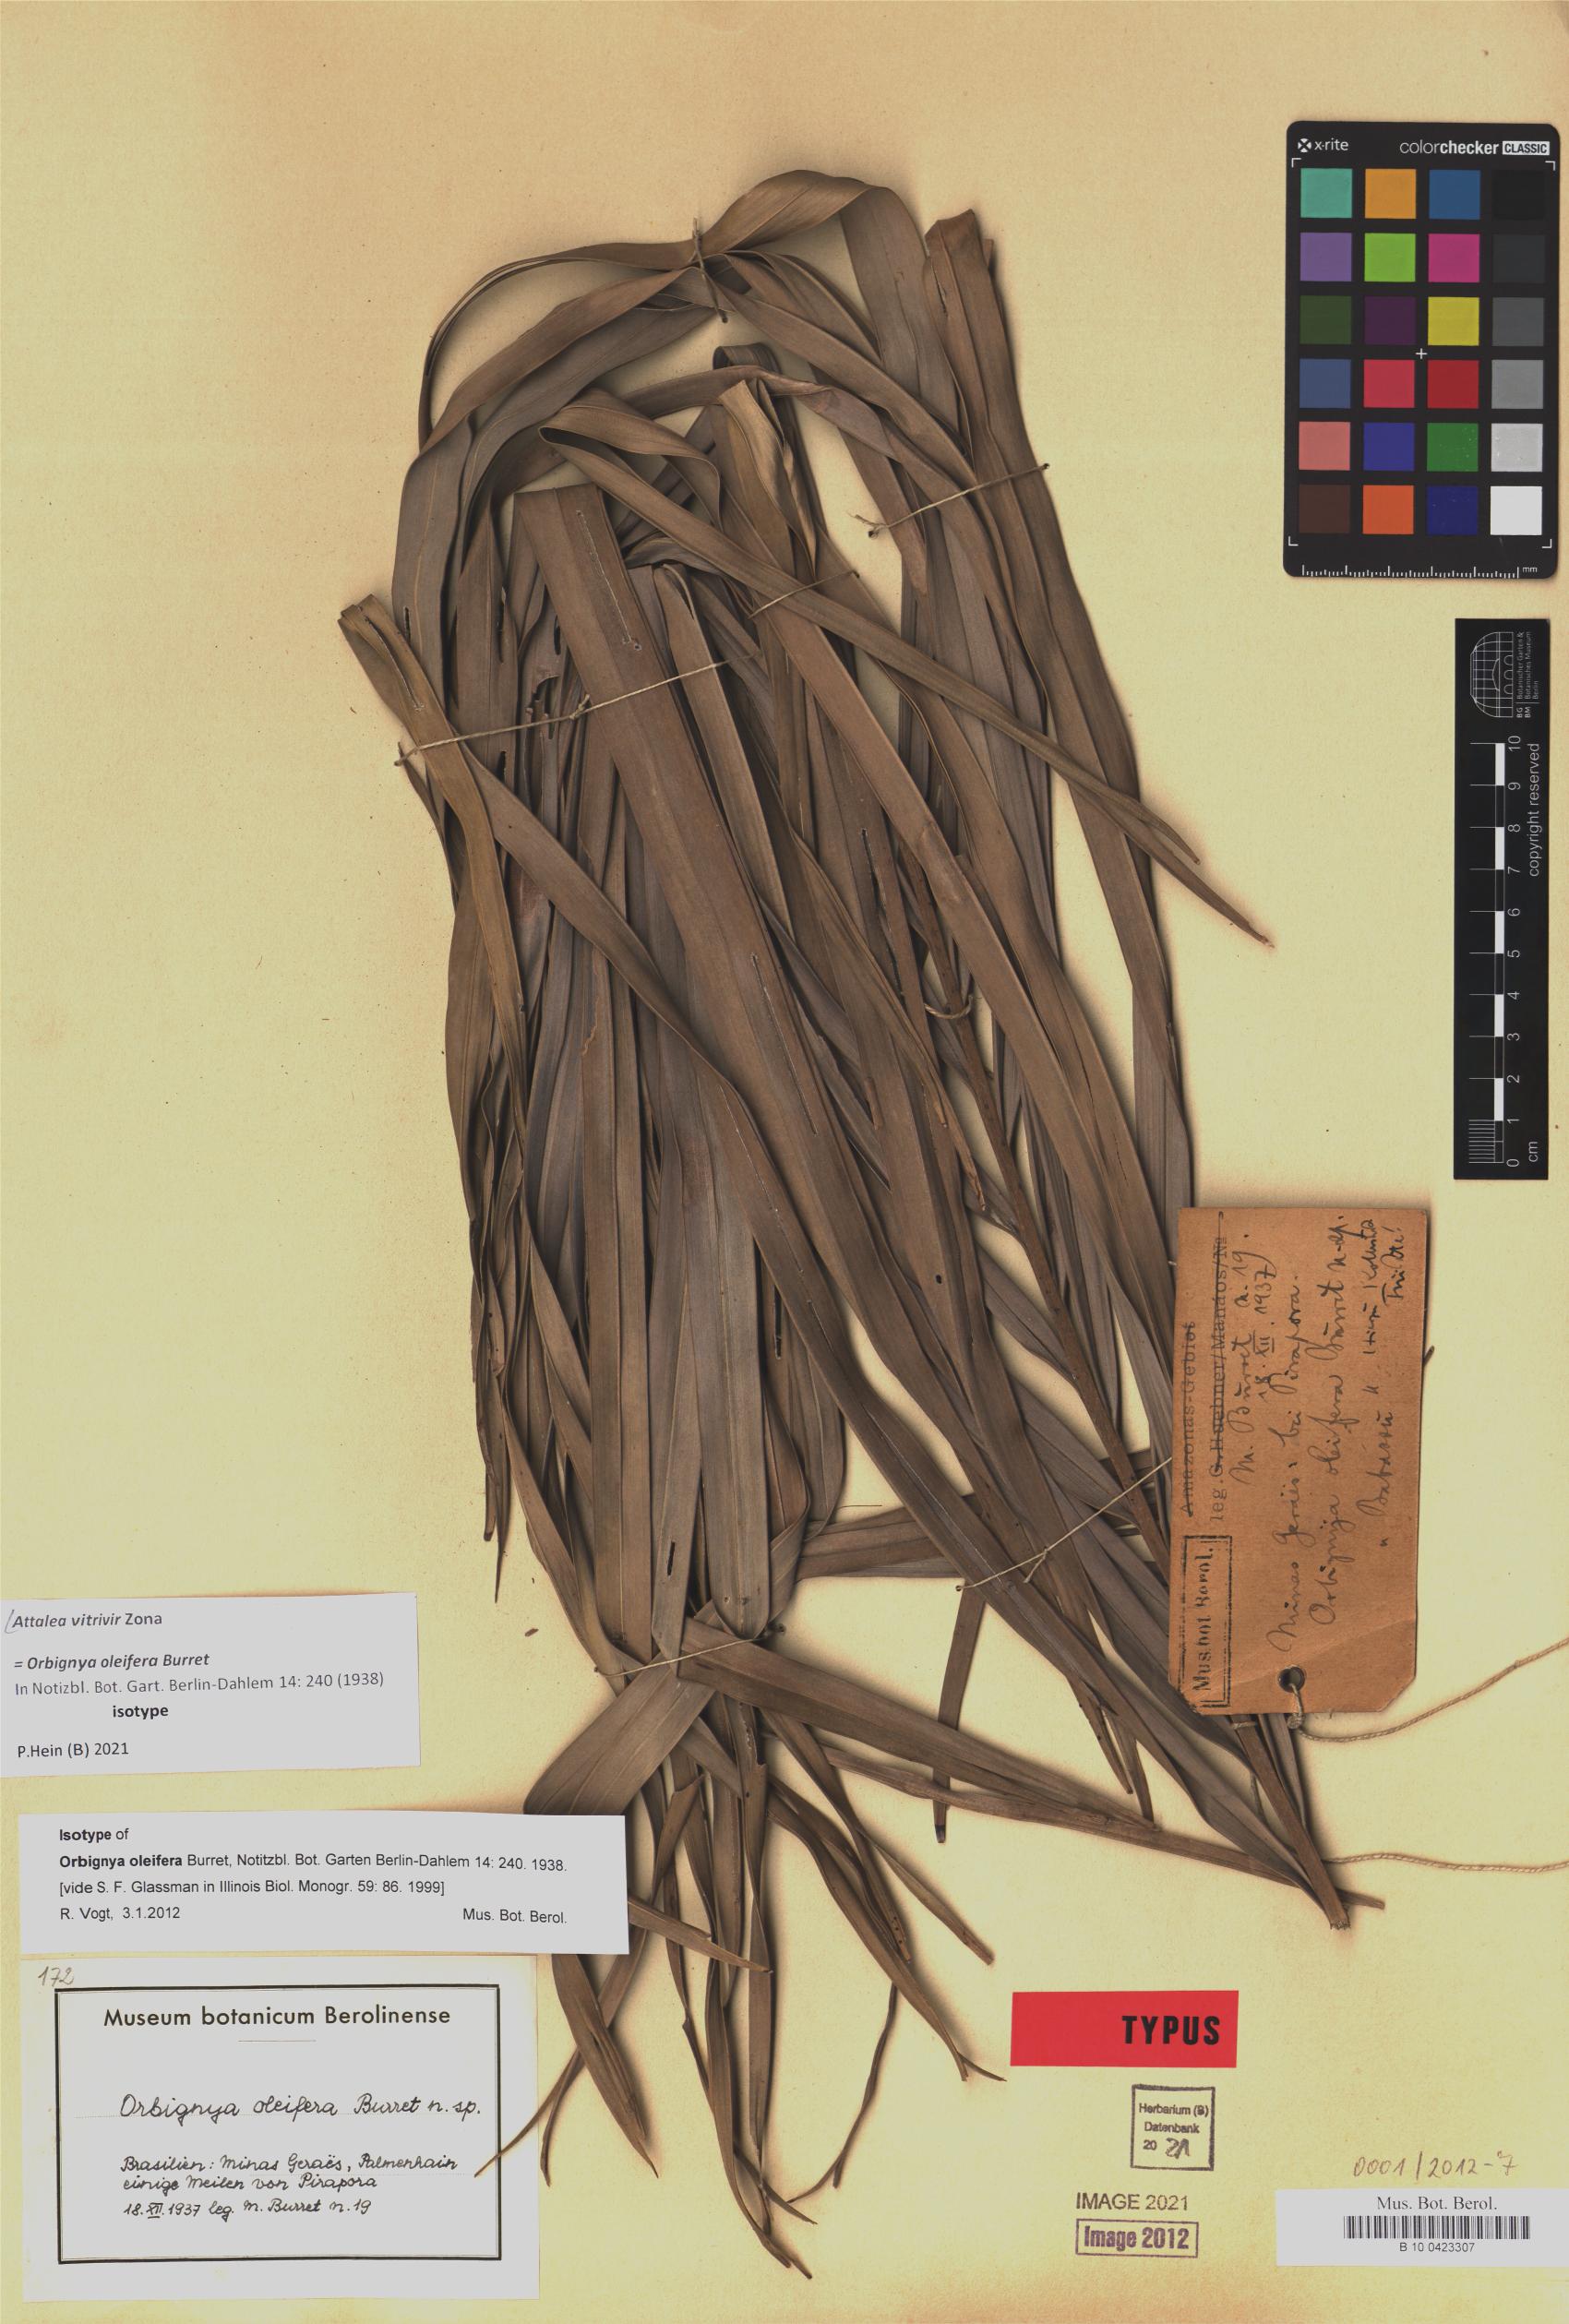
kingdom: Plantae
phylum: Tracheophyta
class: Liliopsida
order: Arecales
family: Arecaceae
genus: Attalea
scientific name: Attalea vitrivir
